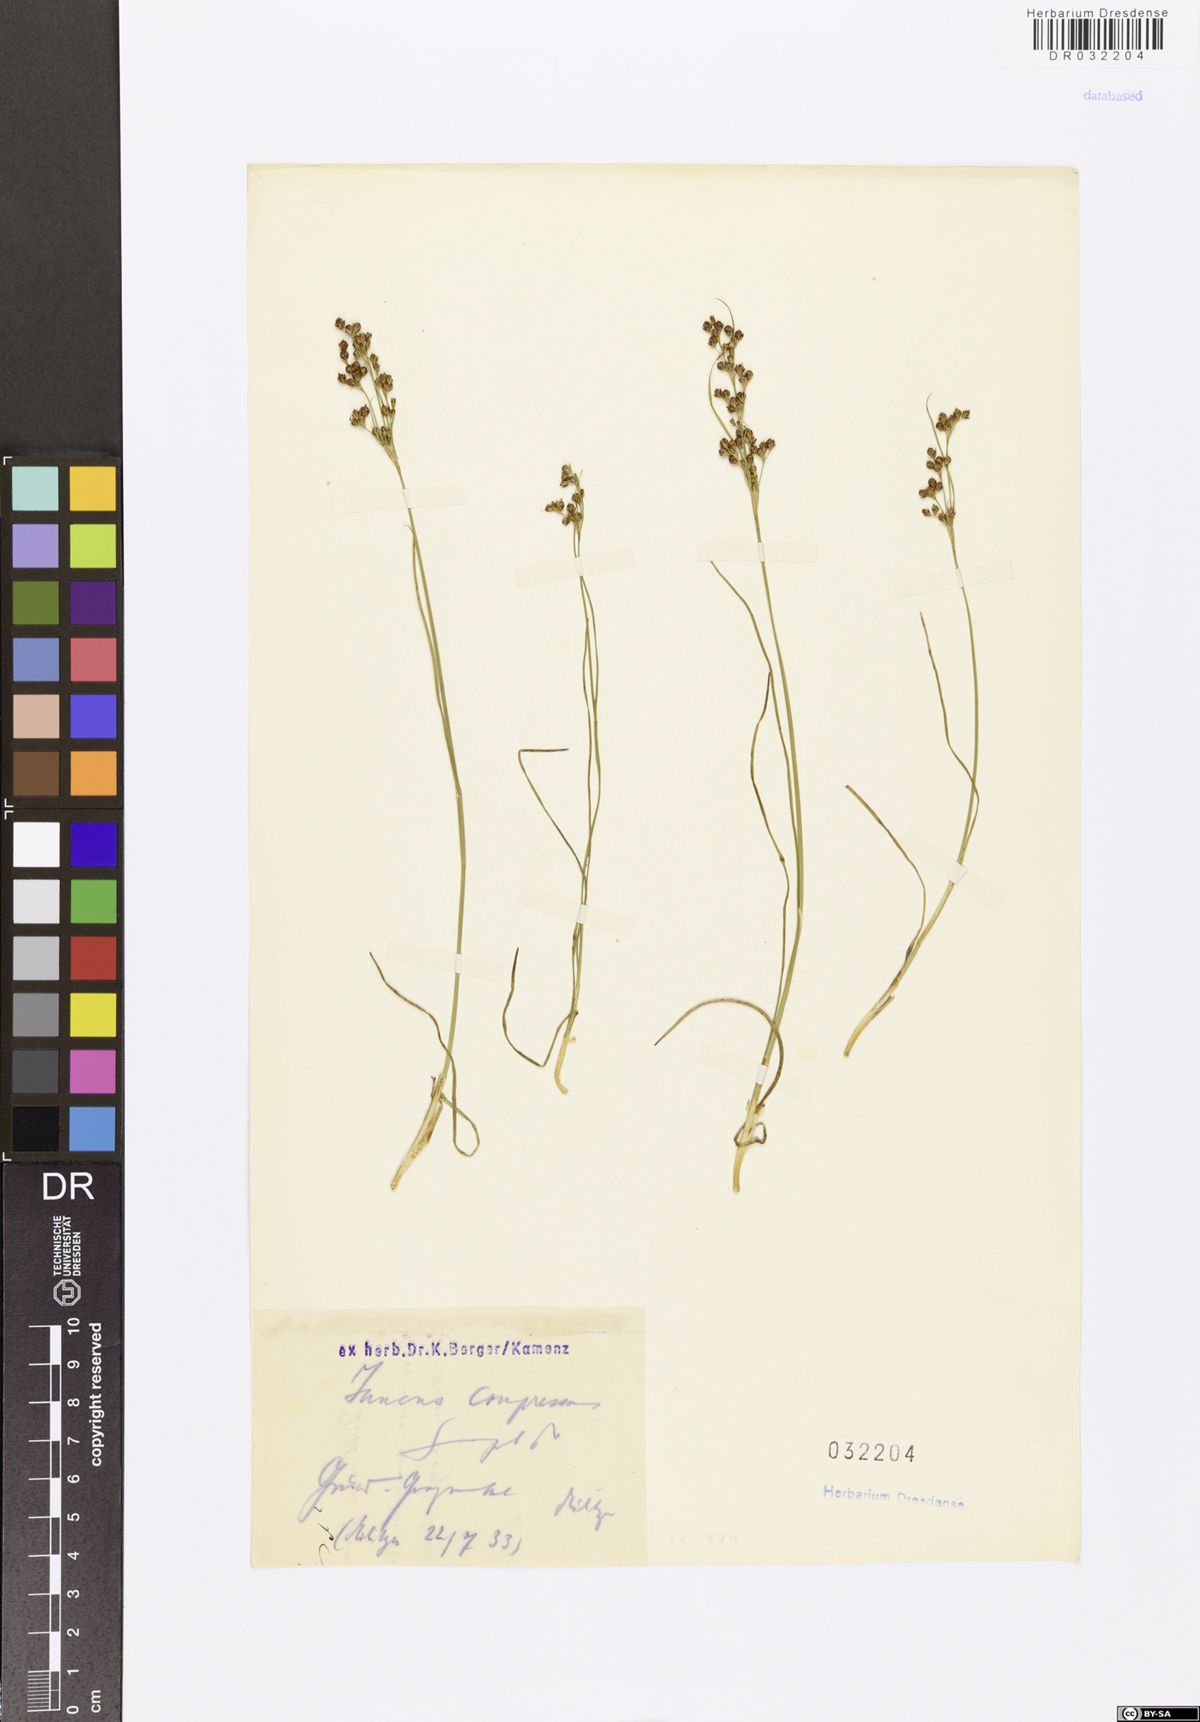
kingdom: Plantae
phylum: Tracheophyta
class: Liliopsida
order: Poales
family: Juncaceae
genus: Juncus
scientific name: Juncus compressus
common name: Round-fruited rush
